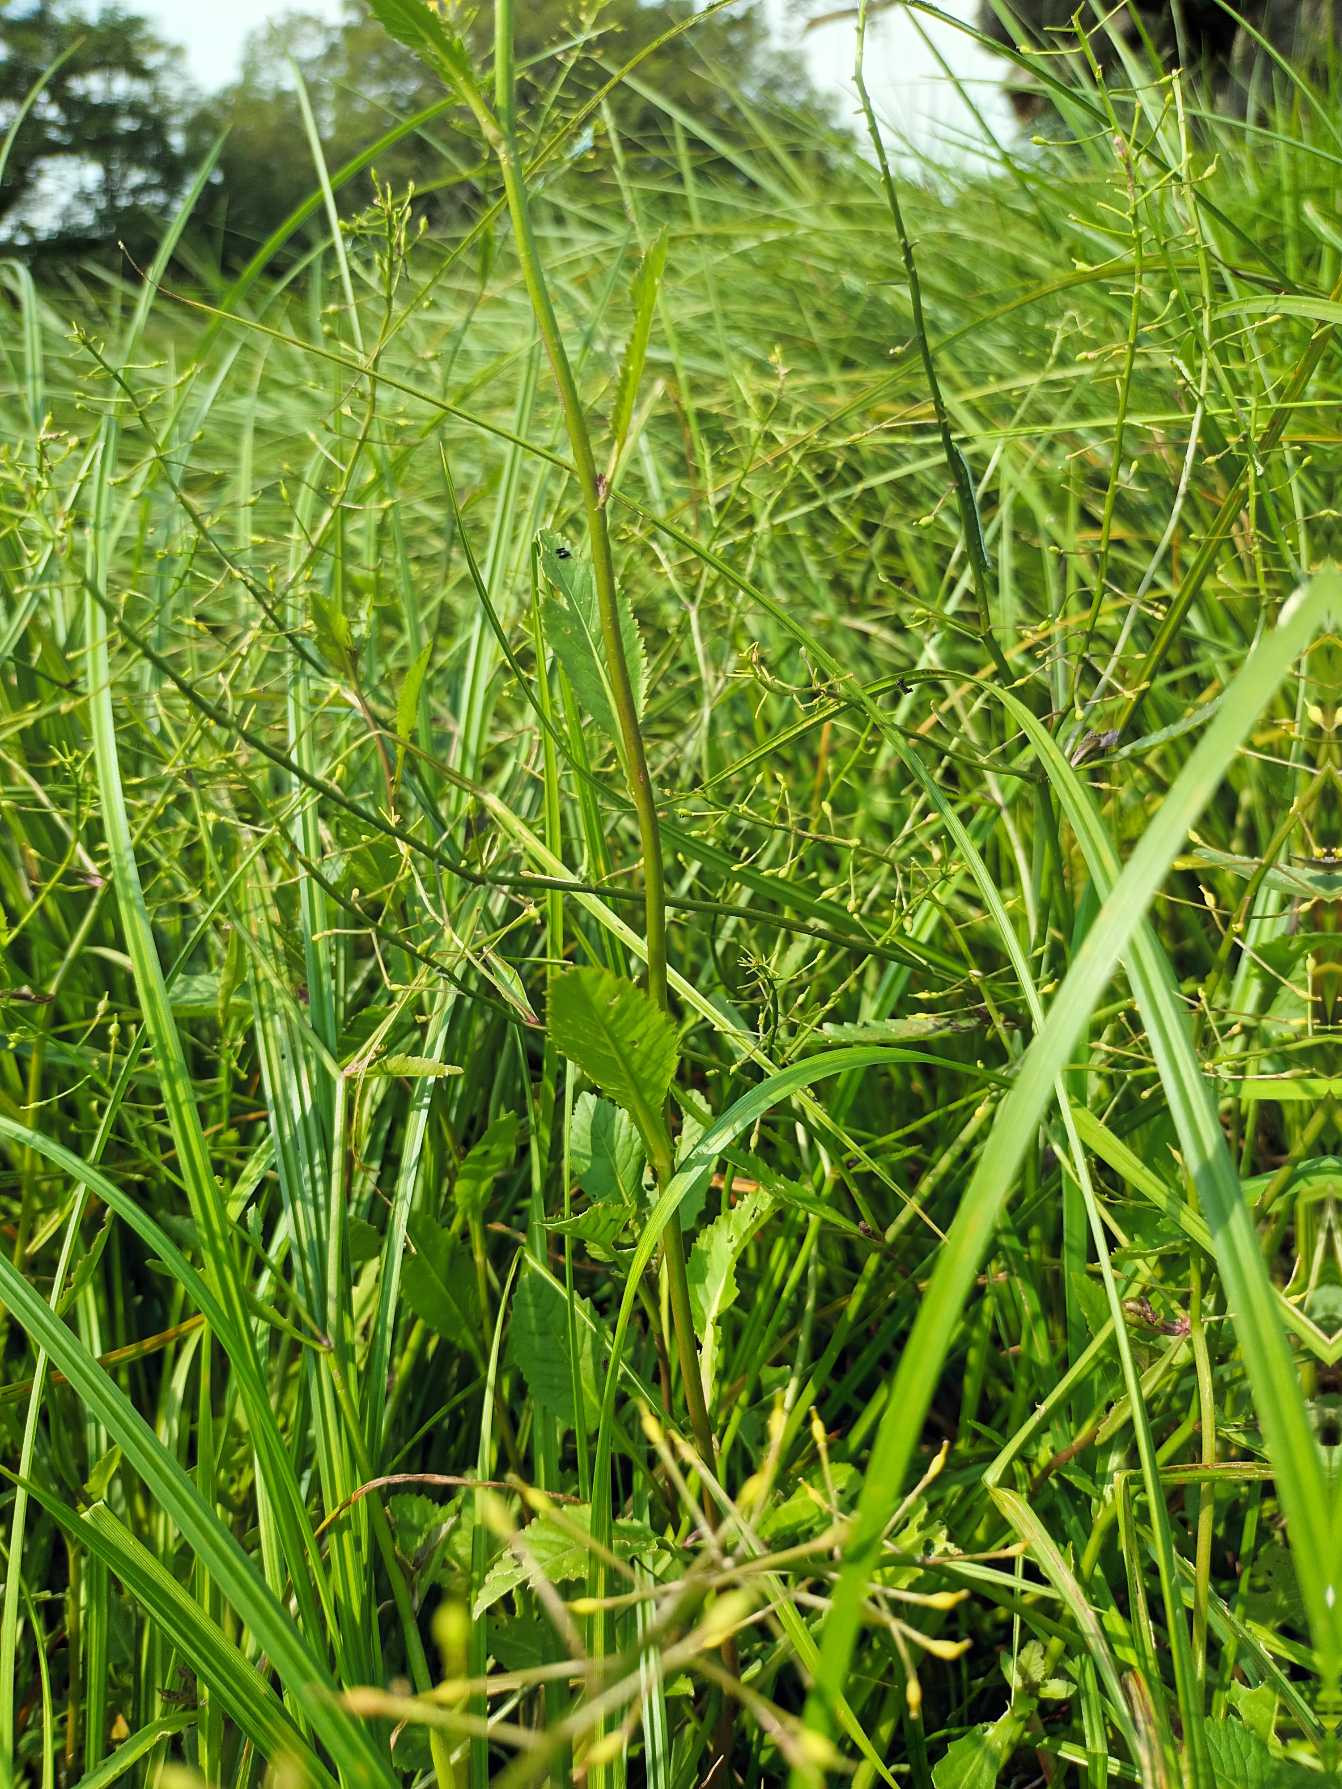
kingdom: Plantae
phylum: Tracheophyta
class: Magnoliopsida
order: Brassicales
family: Brassicaceae
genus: Rorippa
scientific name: Rorippa amphibia
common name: Vandpeberrod
